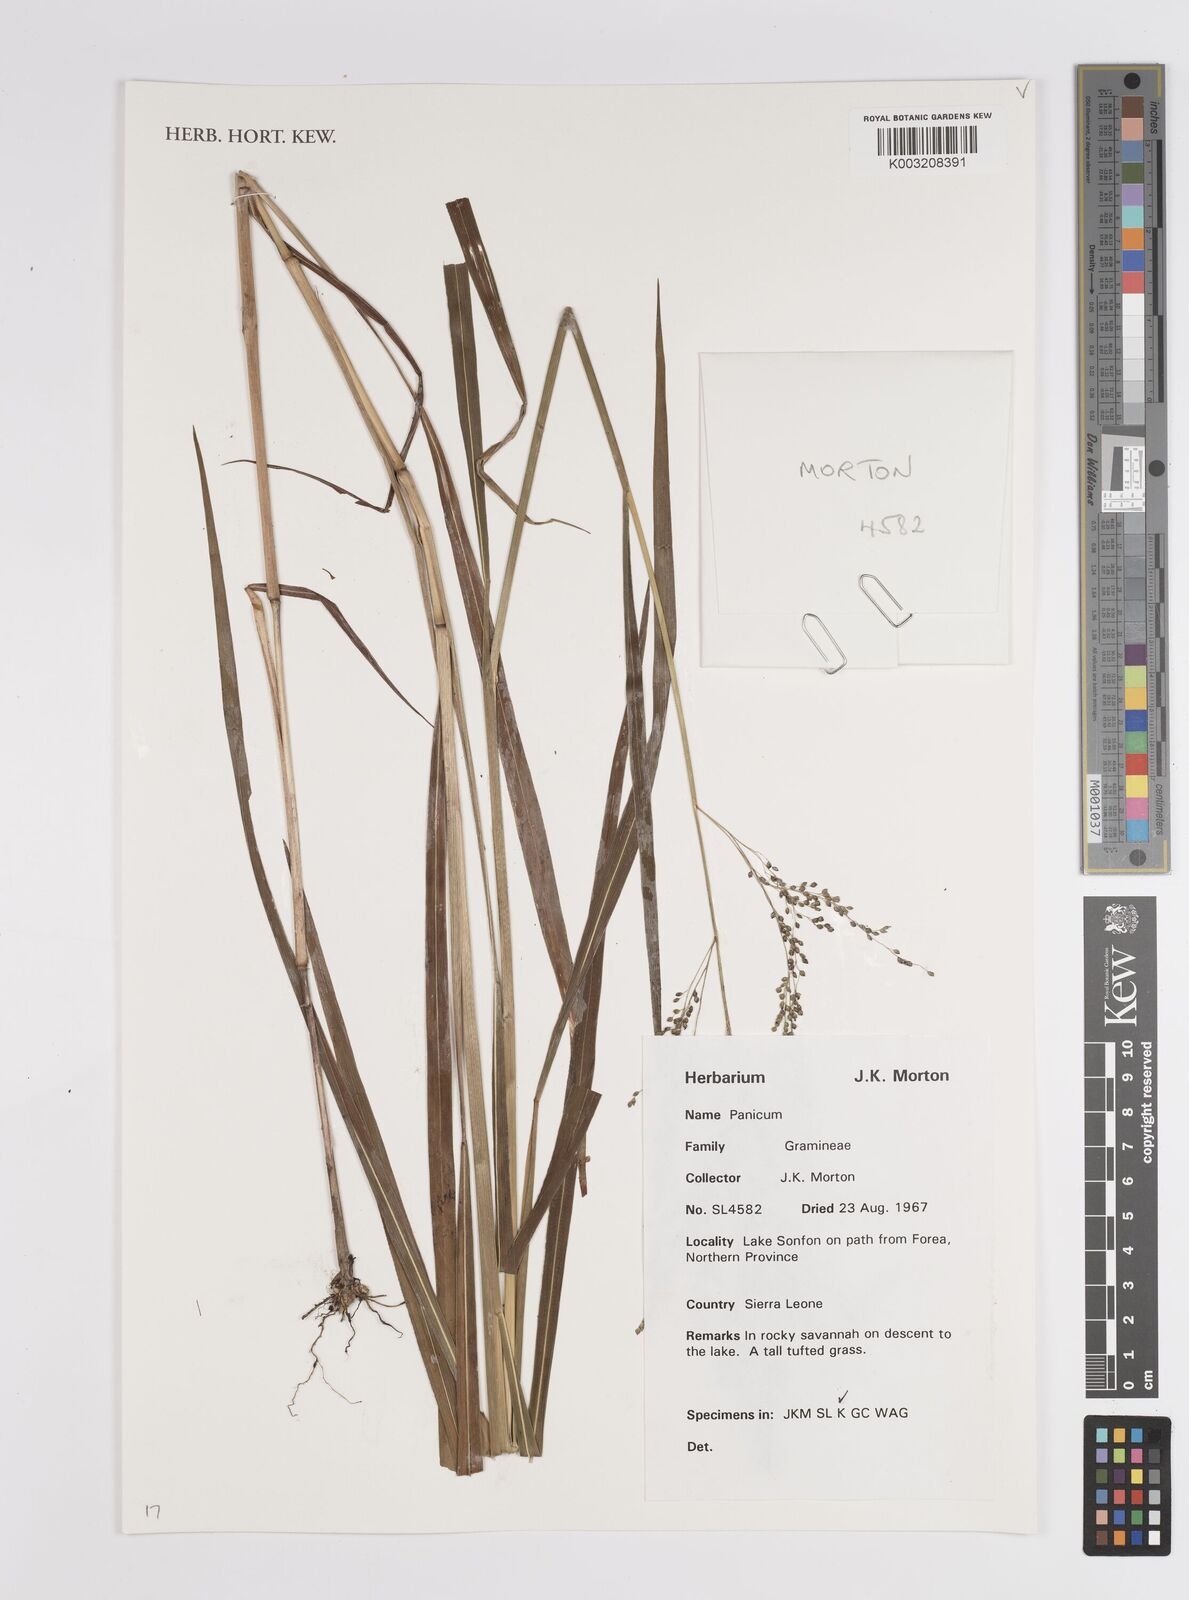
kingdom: Plantae
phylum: Tracheophyta
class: Liliopsida
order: Poales
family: Poaceae
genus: Panicum
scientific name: Panicum
